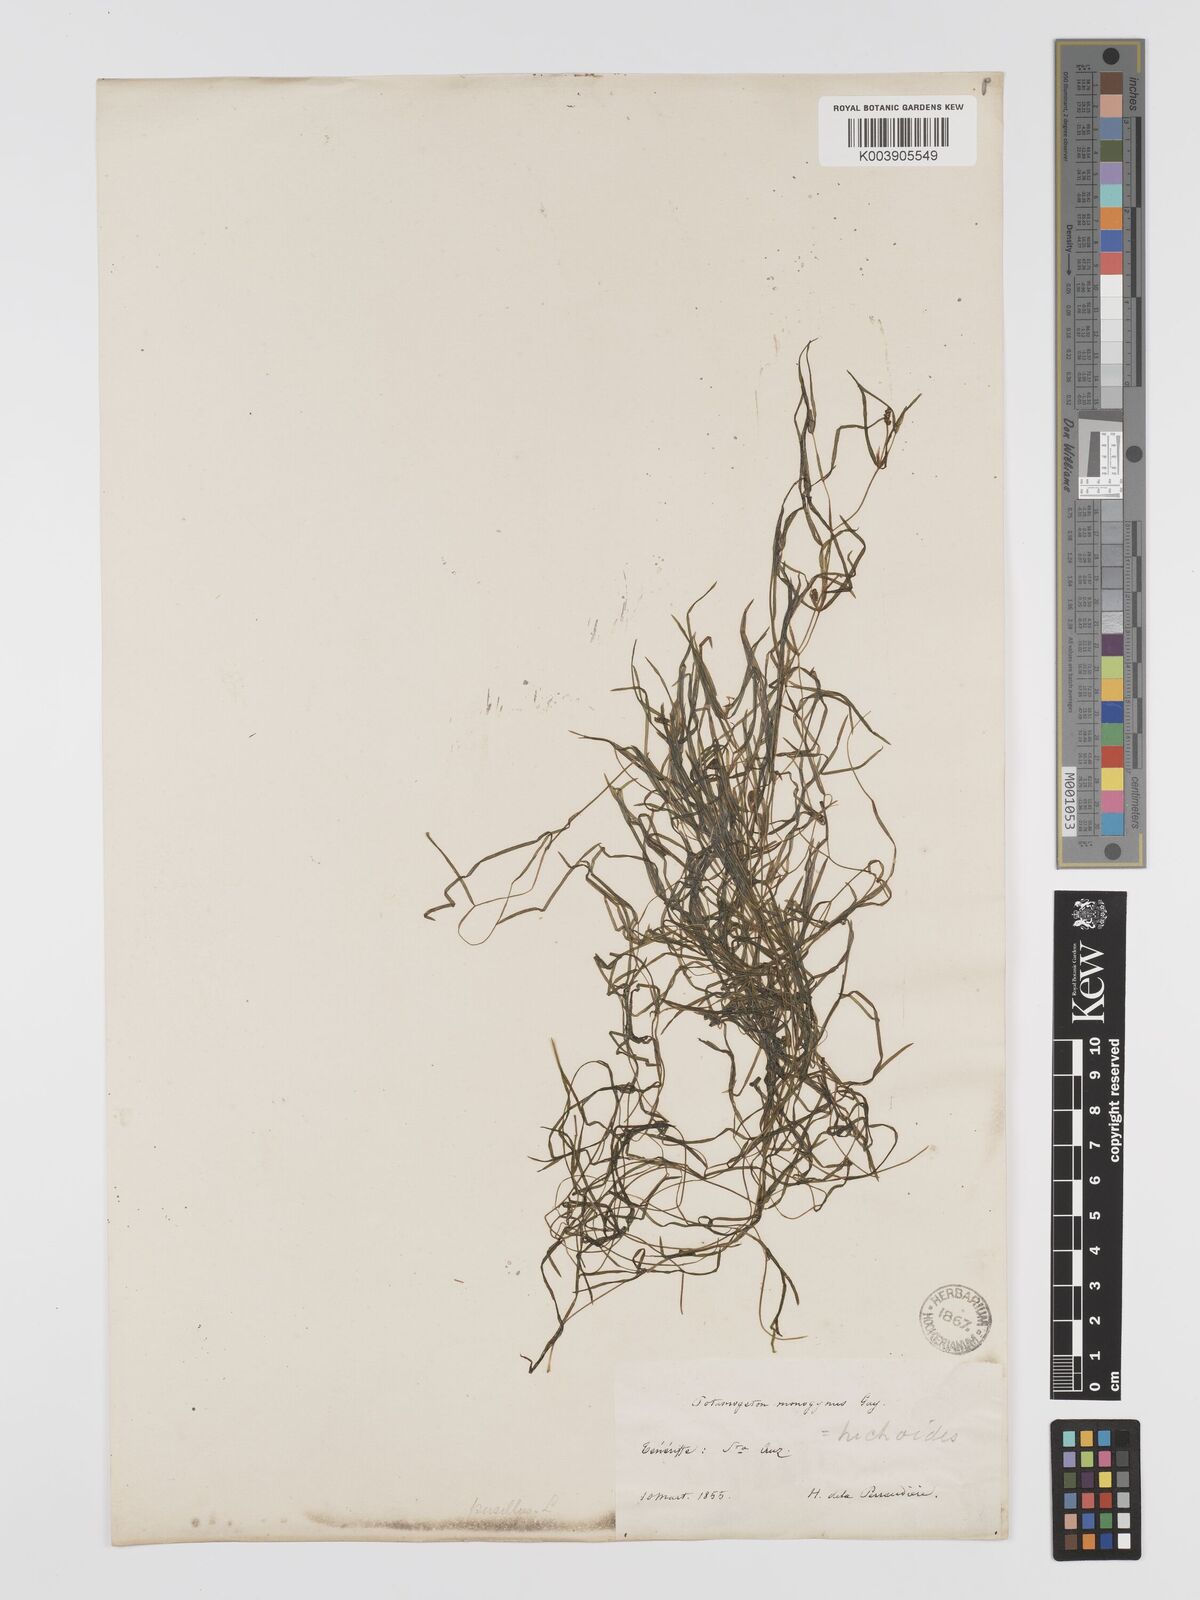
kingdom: Plantae
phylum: Tracheophyta
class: Liliopsida
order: Alismatales
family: Potamogetonaceae
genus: Potamogeton
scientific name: Potamogeton pusillus
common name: Lesser pondweed
